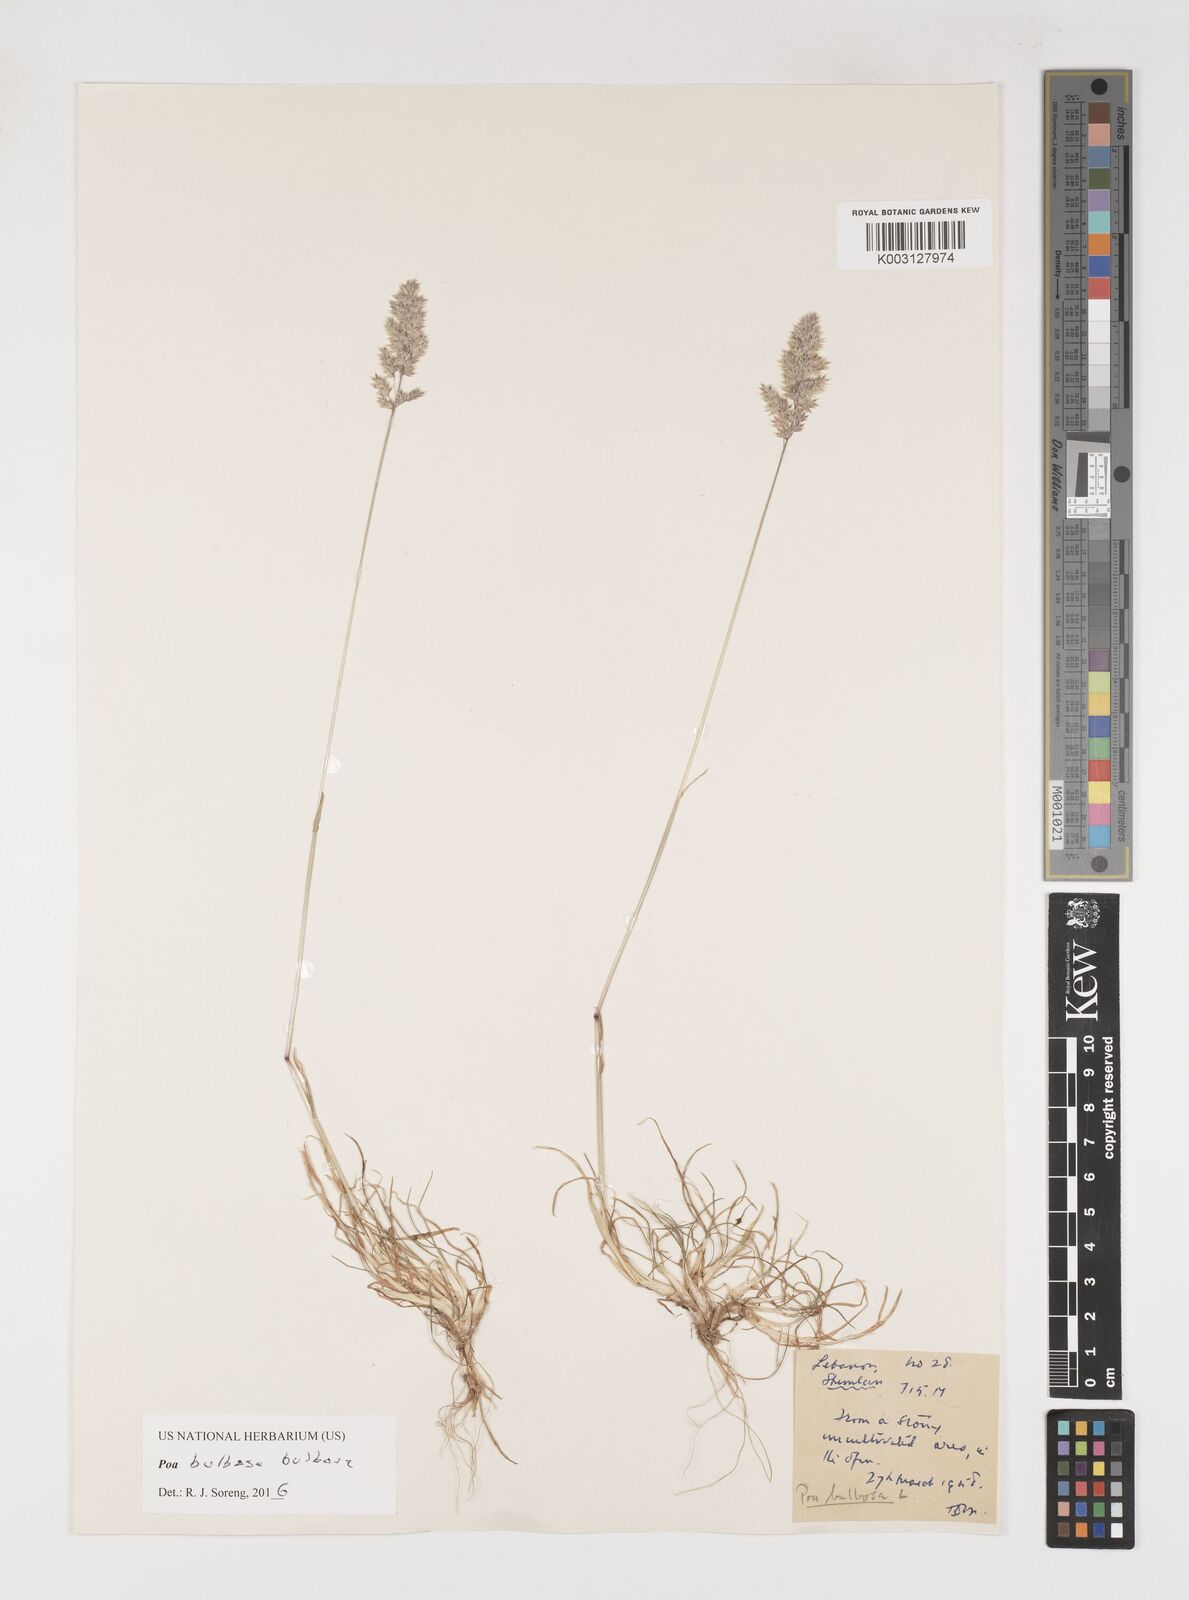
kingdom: Plantae
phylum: Tracheophyta
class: Liliopsida
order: Poales
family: Poaceae
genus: Poa
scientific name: Poa
